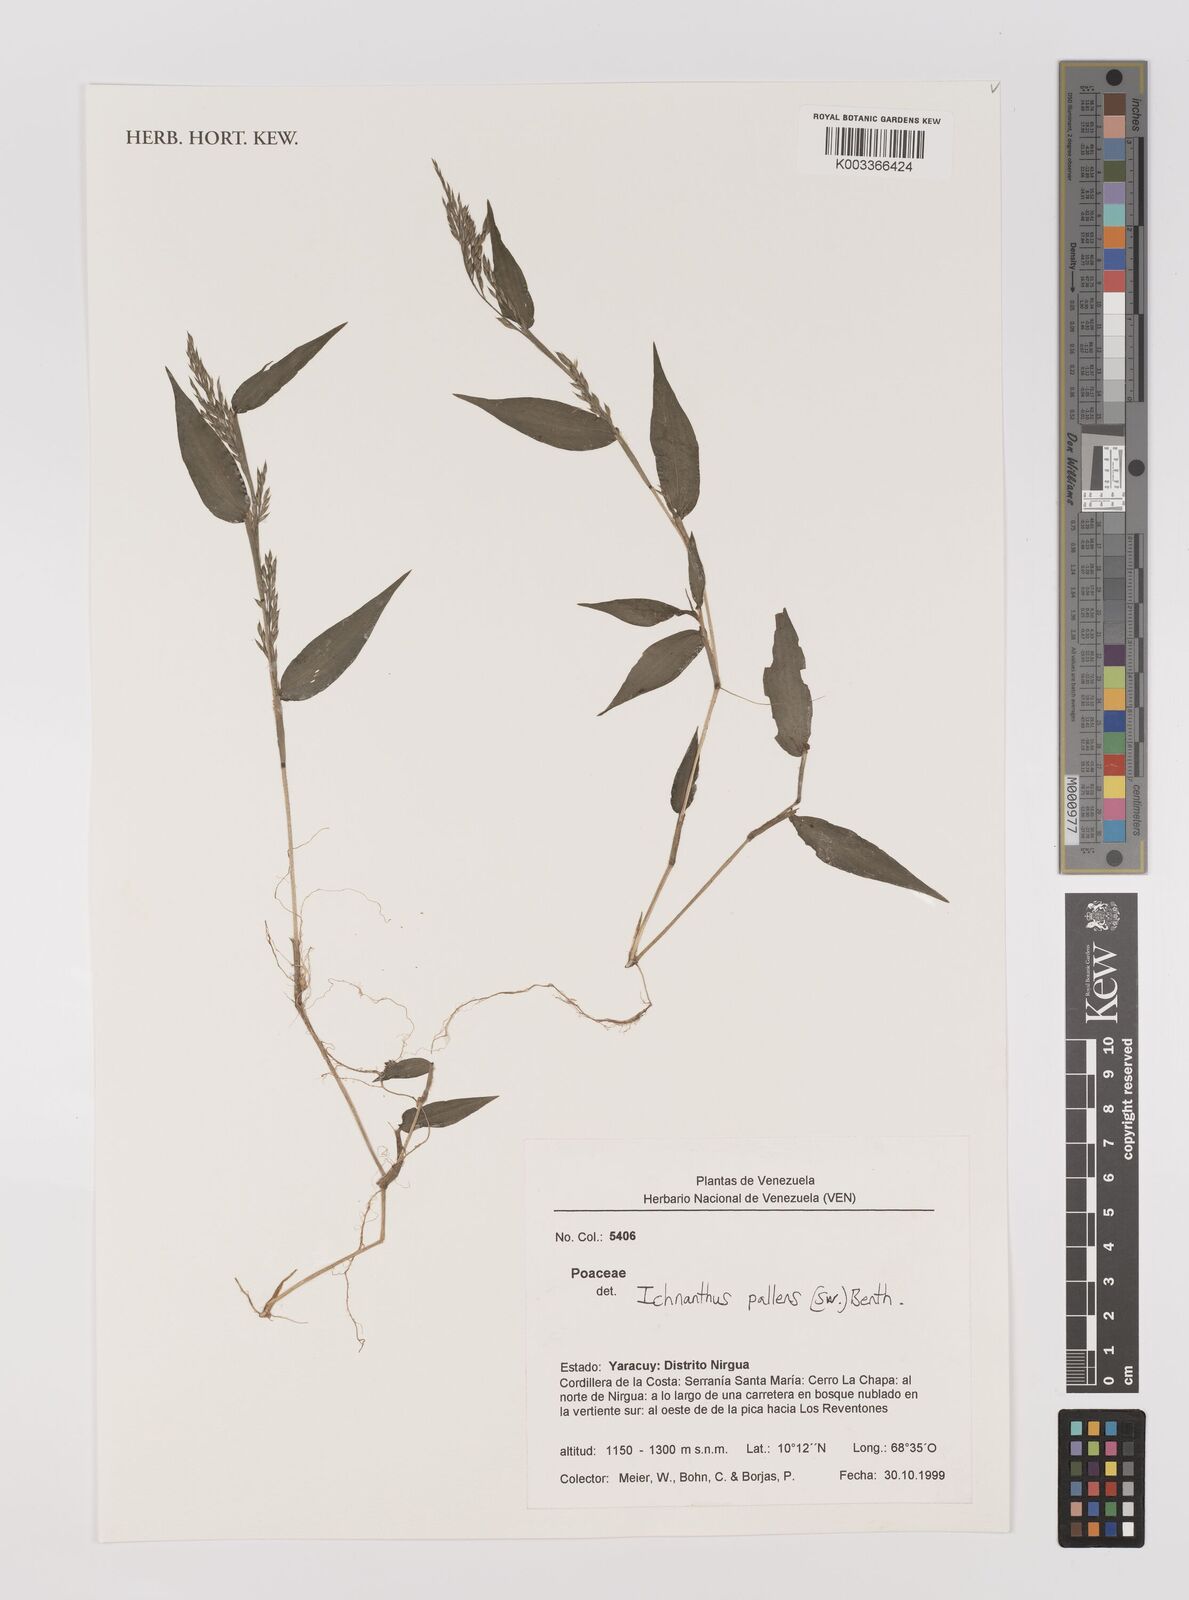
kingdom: Plantae
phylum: Tracheophyta
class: Liliopsida
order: Poales
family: Poaceae
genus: Ichnanthus
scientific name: Ichnanthus pallens
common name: Water grass
